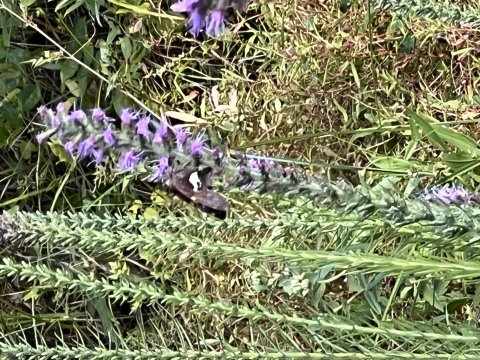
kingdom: Animalia
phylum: Arthropoda
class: Insecta
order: Lepidoptera
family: Hesperiidae
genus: Epargyreus
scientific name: Epargyreus clarus
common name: Silver-spotted Skipper
